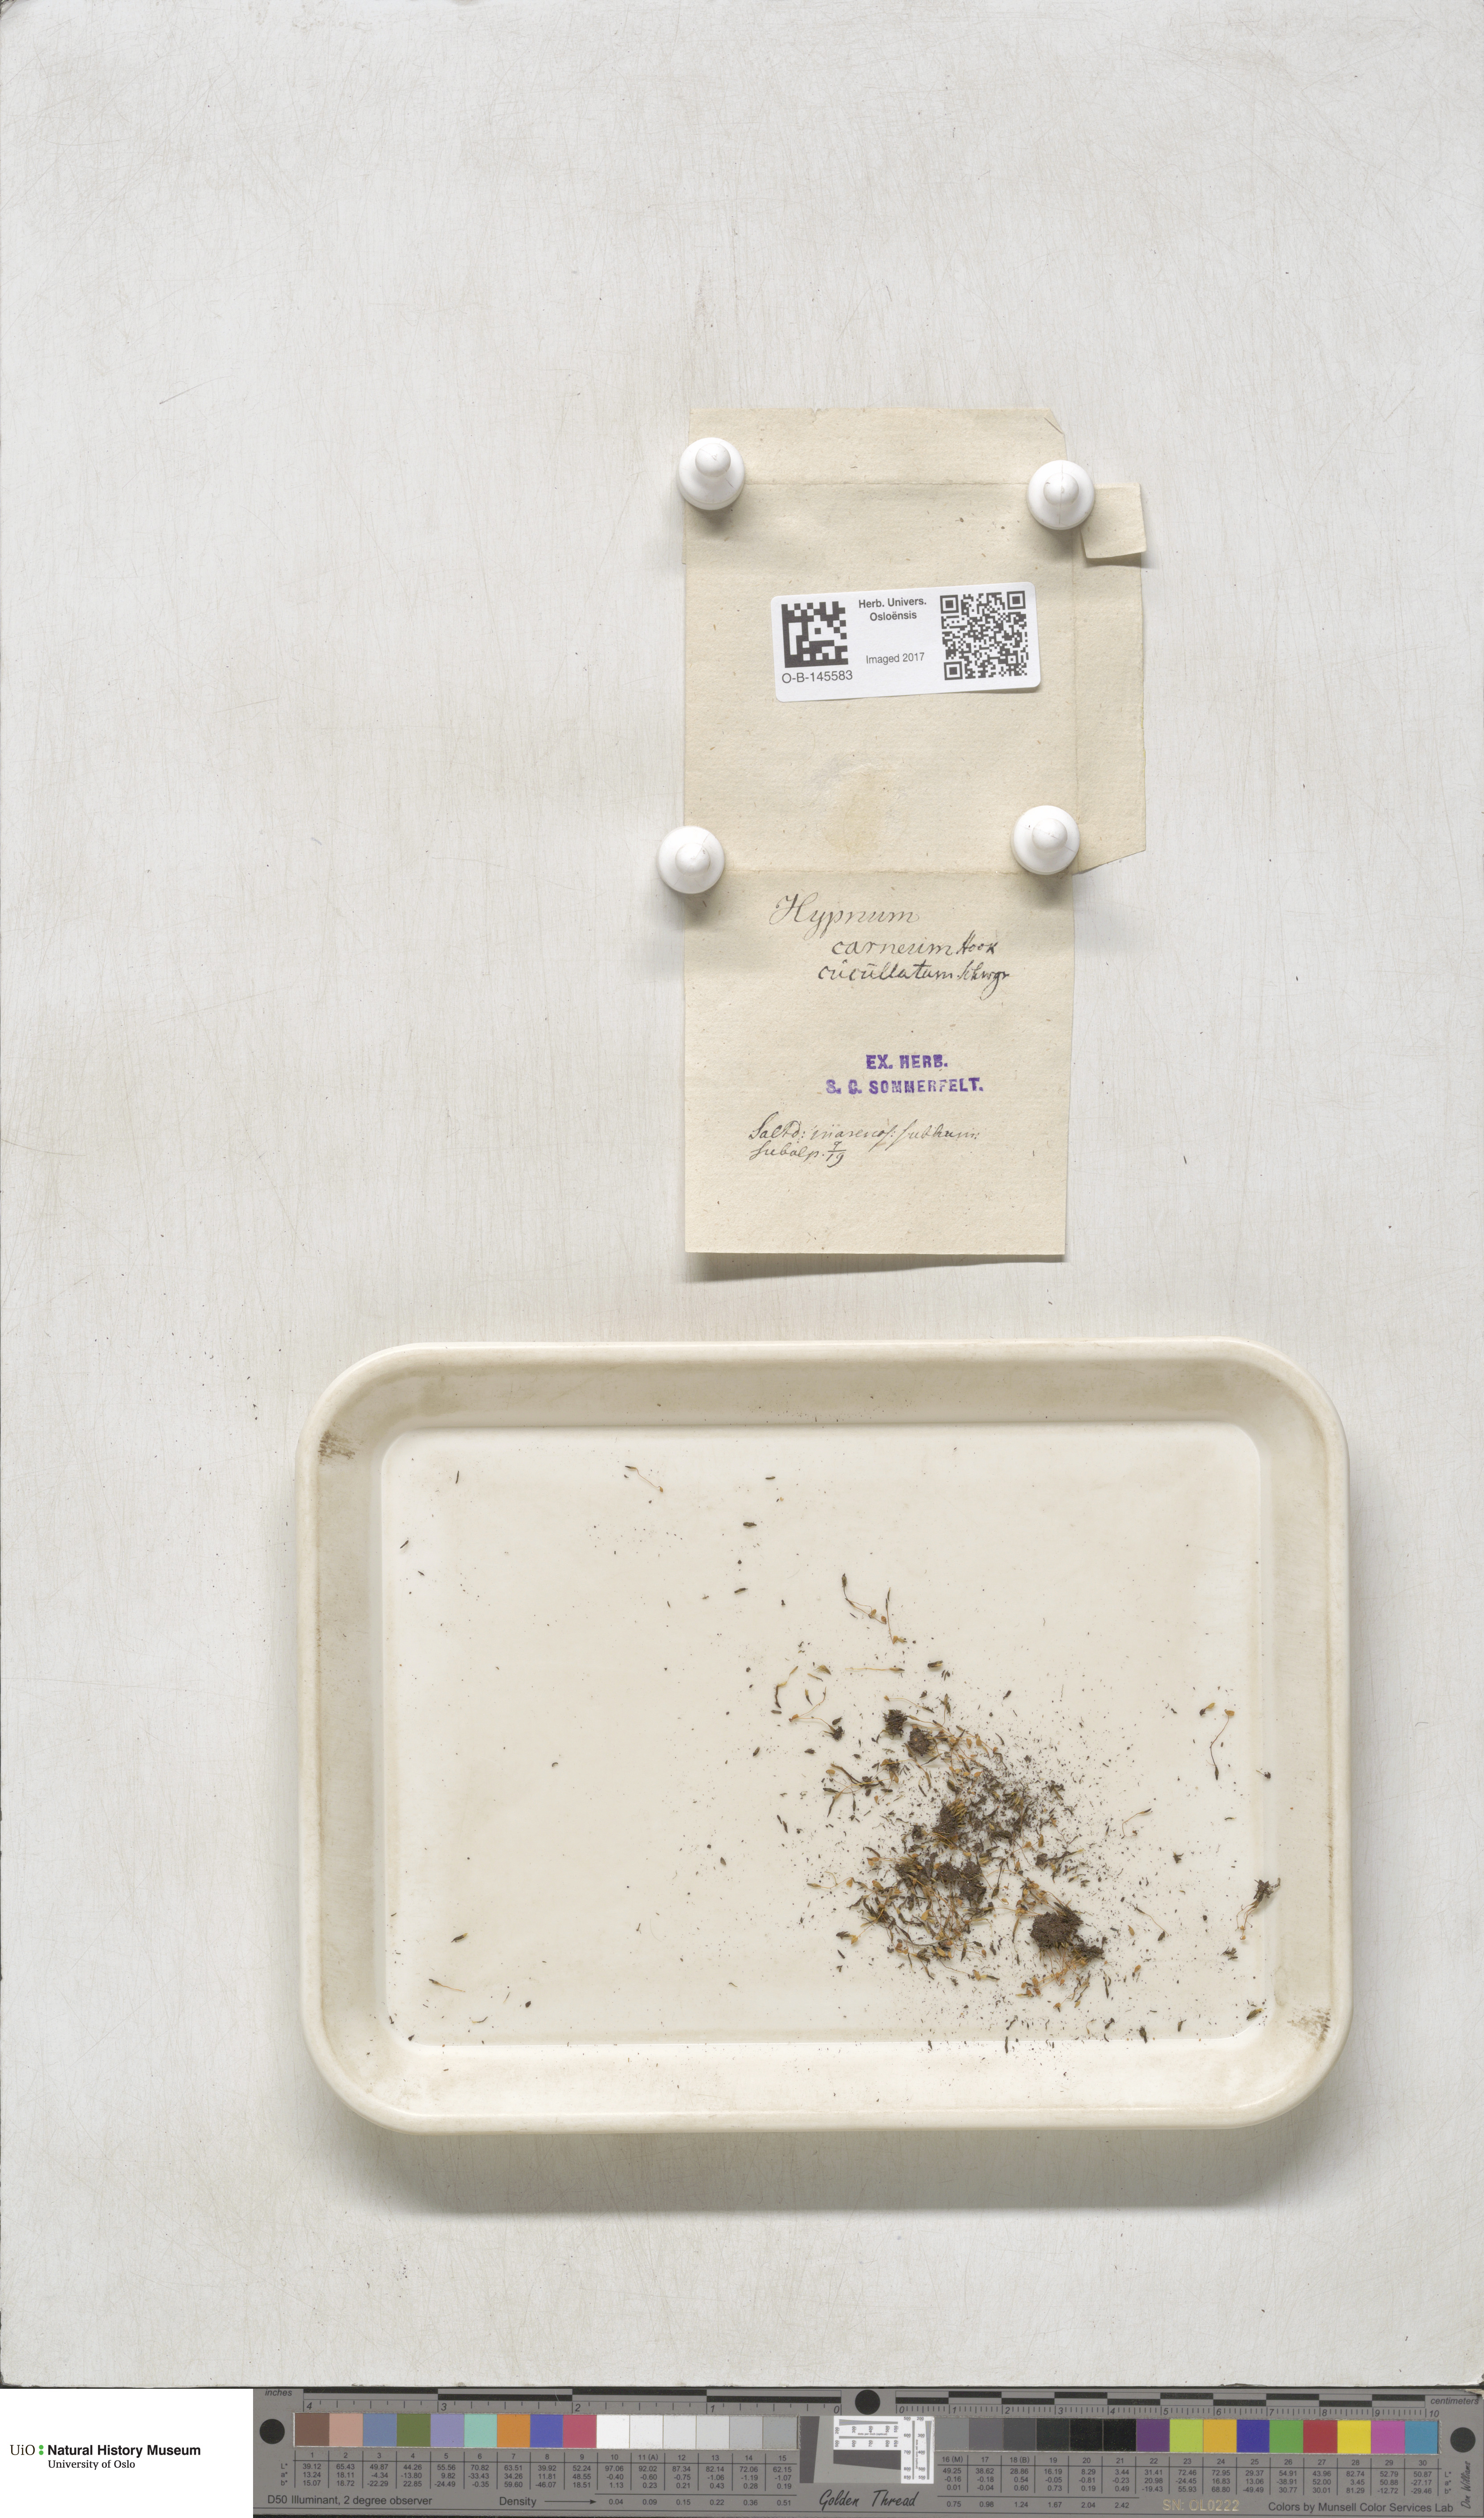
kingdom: Plantae
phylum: Bryophyta
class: Bryopsida
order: Bryales
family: Mniaceae
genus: Pohlia
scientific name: Pohlia melanodon
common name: Black-toothed nodding moss
